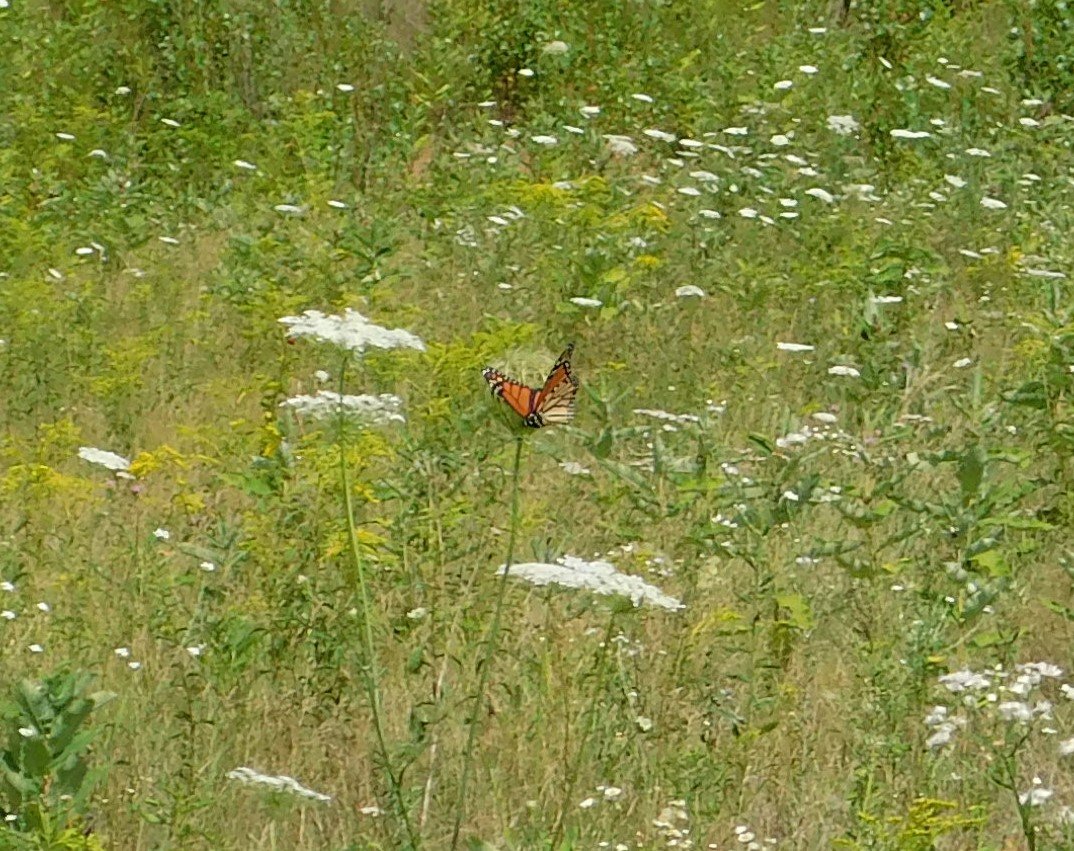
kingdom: Animalia
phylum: Arthropoda
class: Insecta
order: Lepidoptera
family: Nymphalidae
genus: Danaus
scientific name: Danaus plexippus
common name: Monarch
